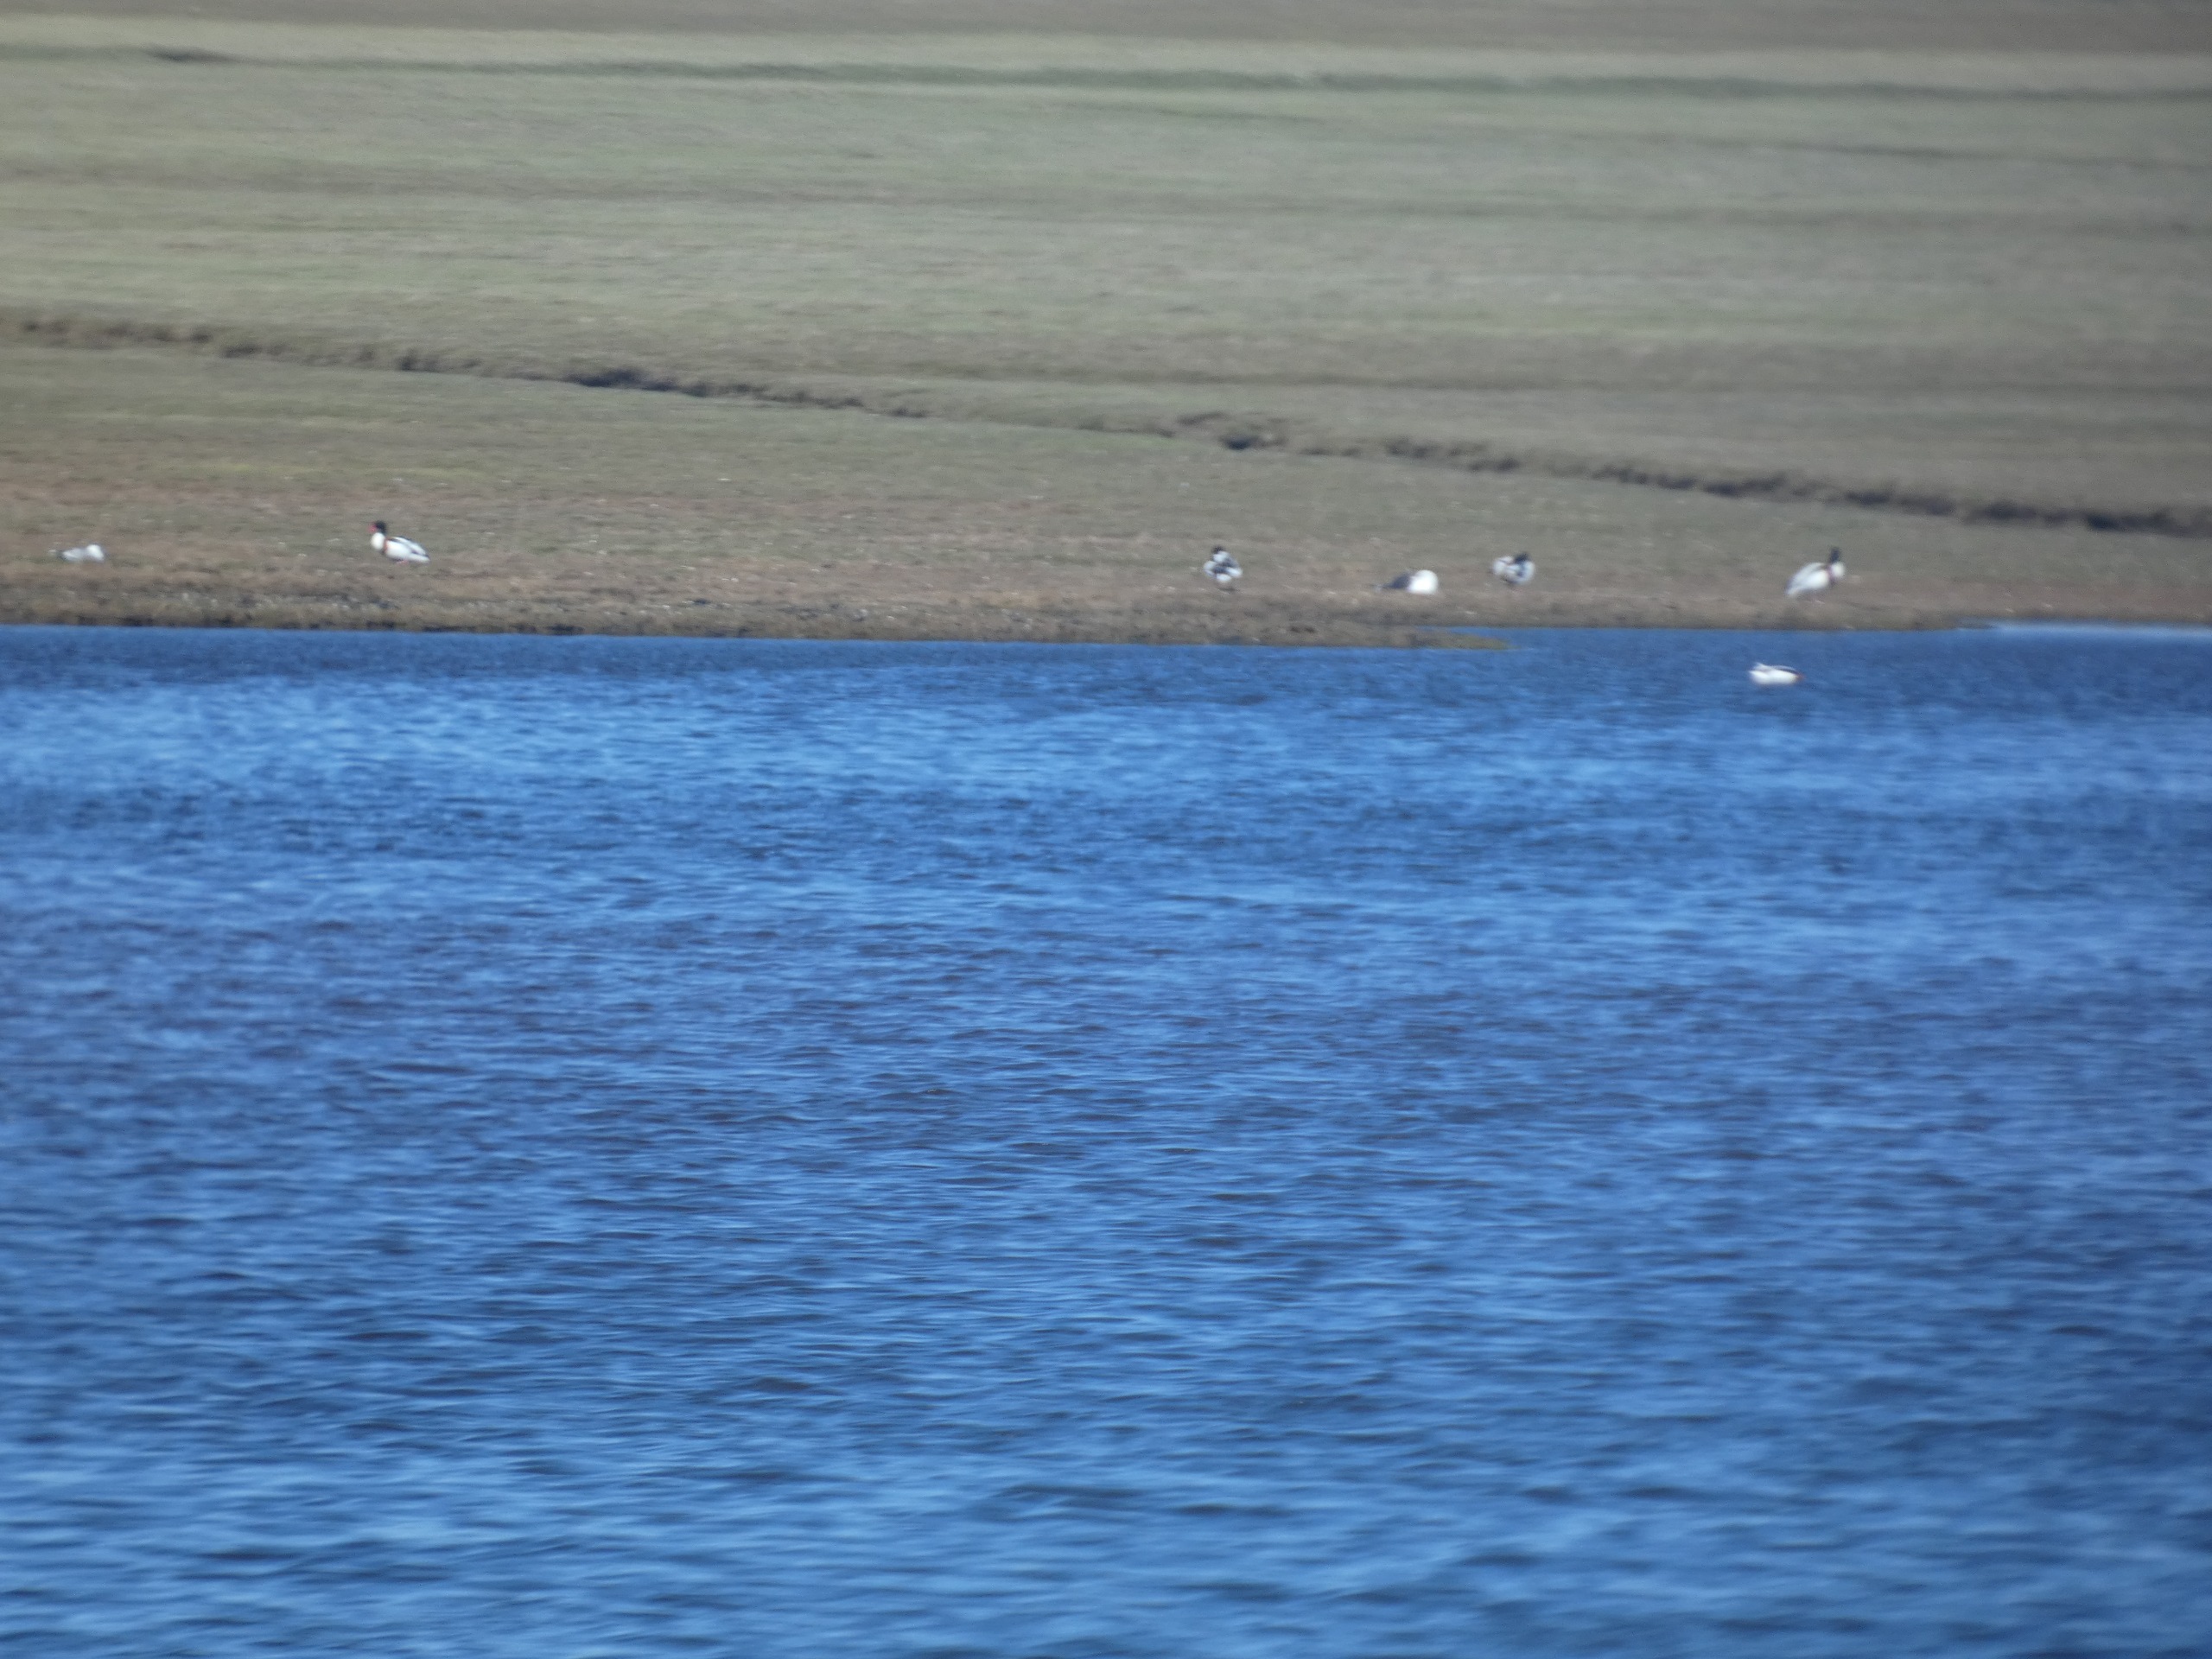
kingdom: Animalia
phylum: Chordata
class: Aves
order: Anseriformes
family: Anatidae
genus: Tadorna
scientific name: Tadorna tadorna
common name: Gravand
